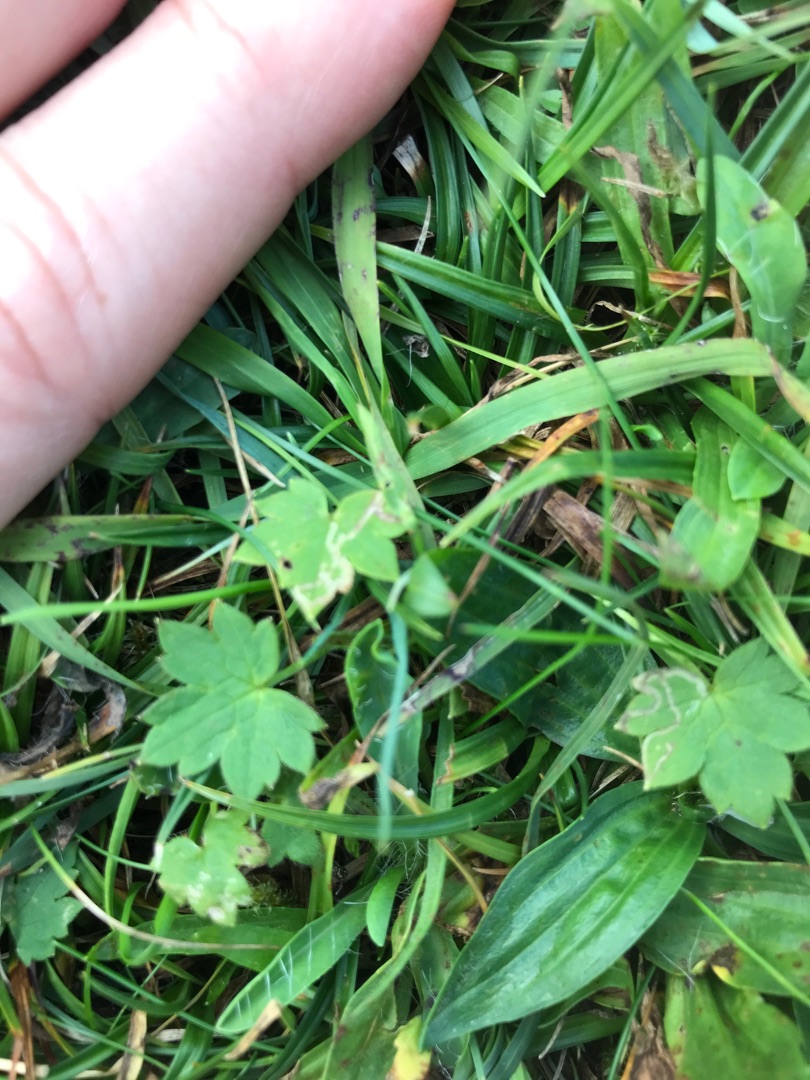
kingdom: Plantae
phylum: Tracheophyta
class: Magnoliopsida
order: Ranunculales
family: Ranunculaceae
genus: Ranunculus
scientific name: Ranunculus acris
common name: Bidende ranunkel
